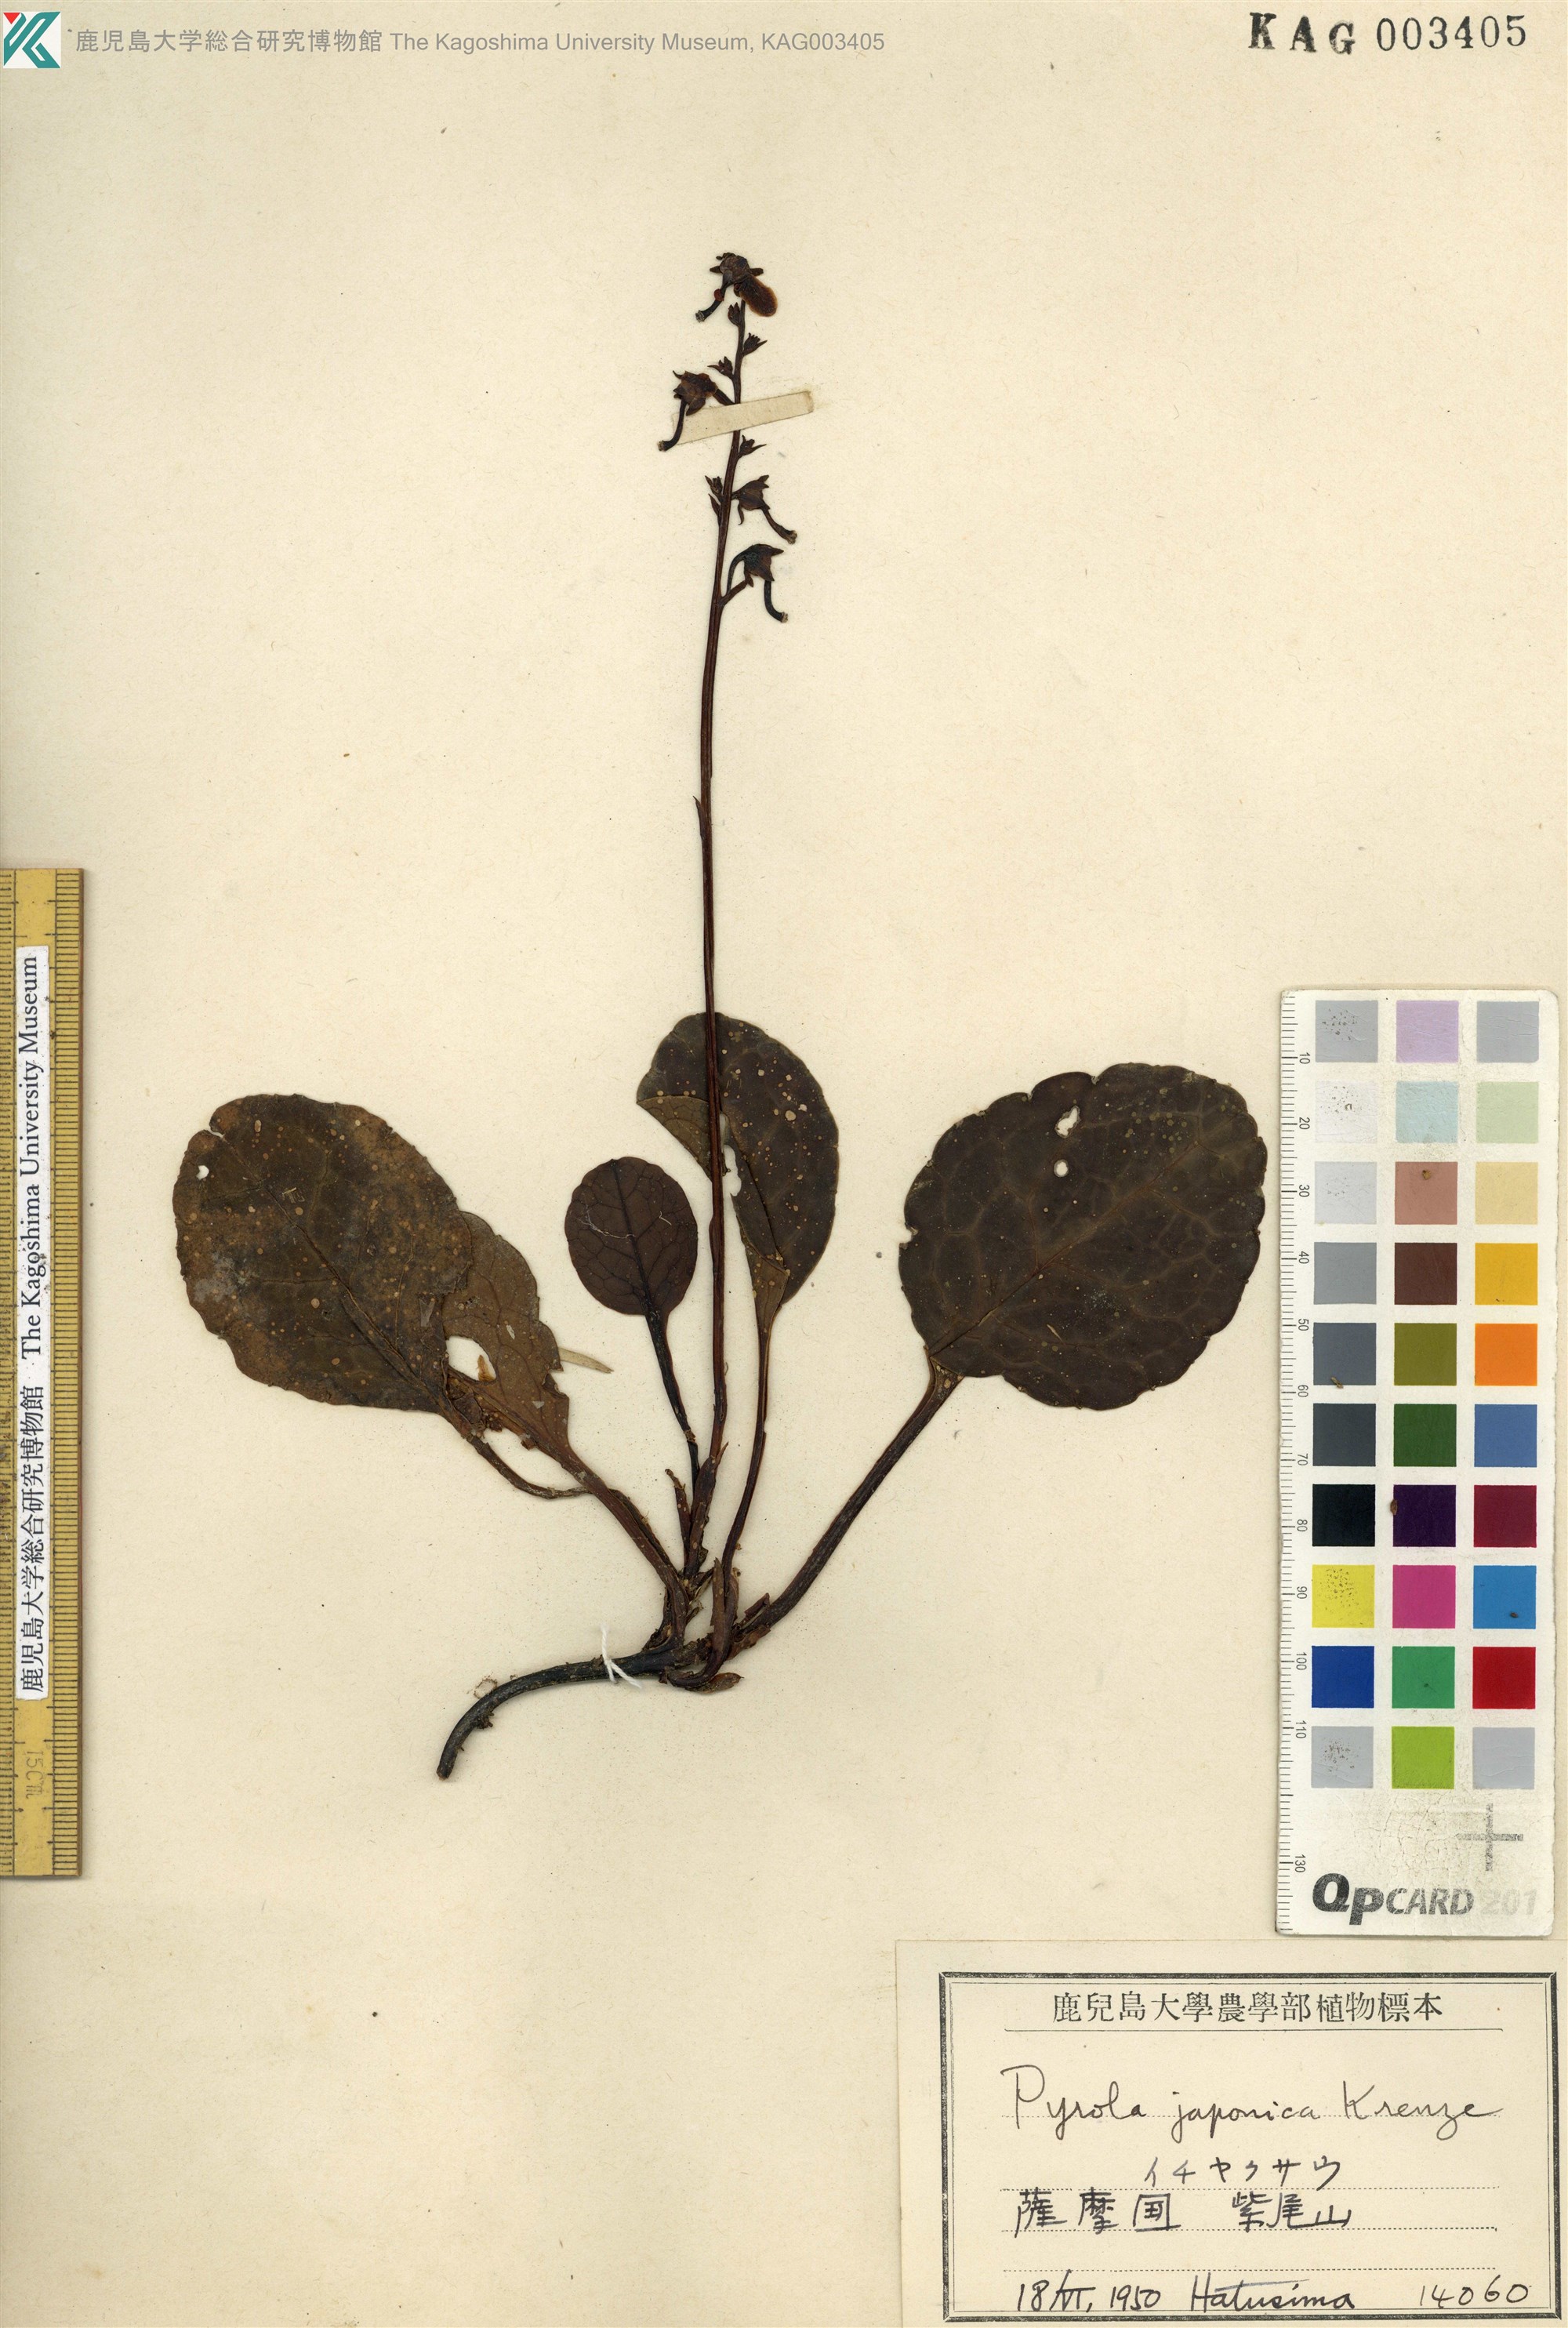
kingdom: Plantae
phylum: Tracheophyta
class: Magnoliopsida
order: Ericales
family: Ericaceae
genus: Pyrola
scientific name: Pyrola japonica
